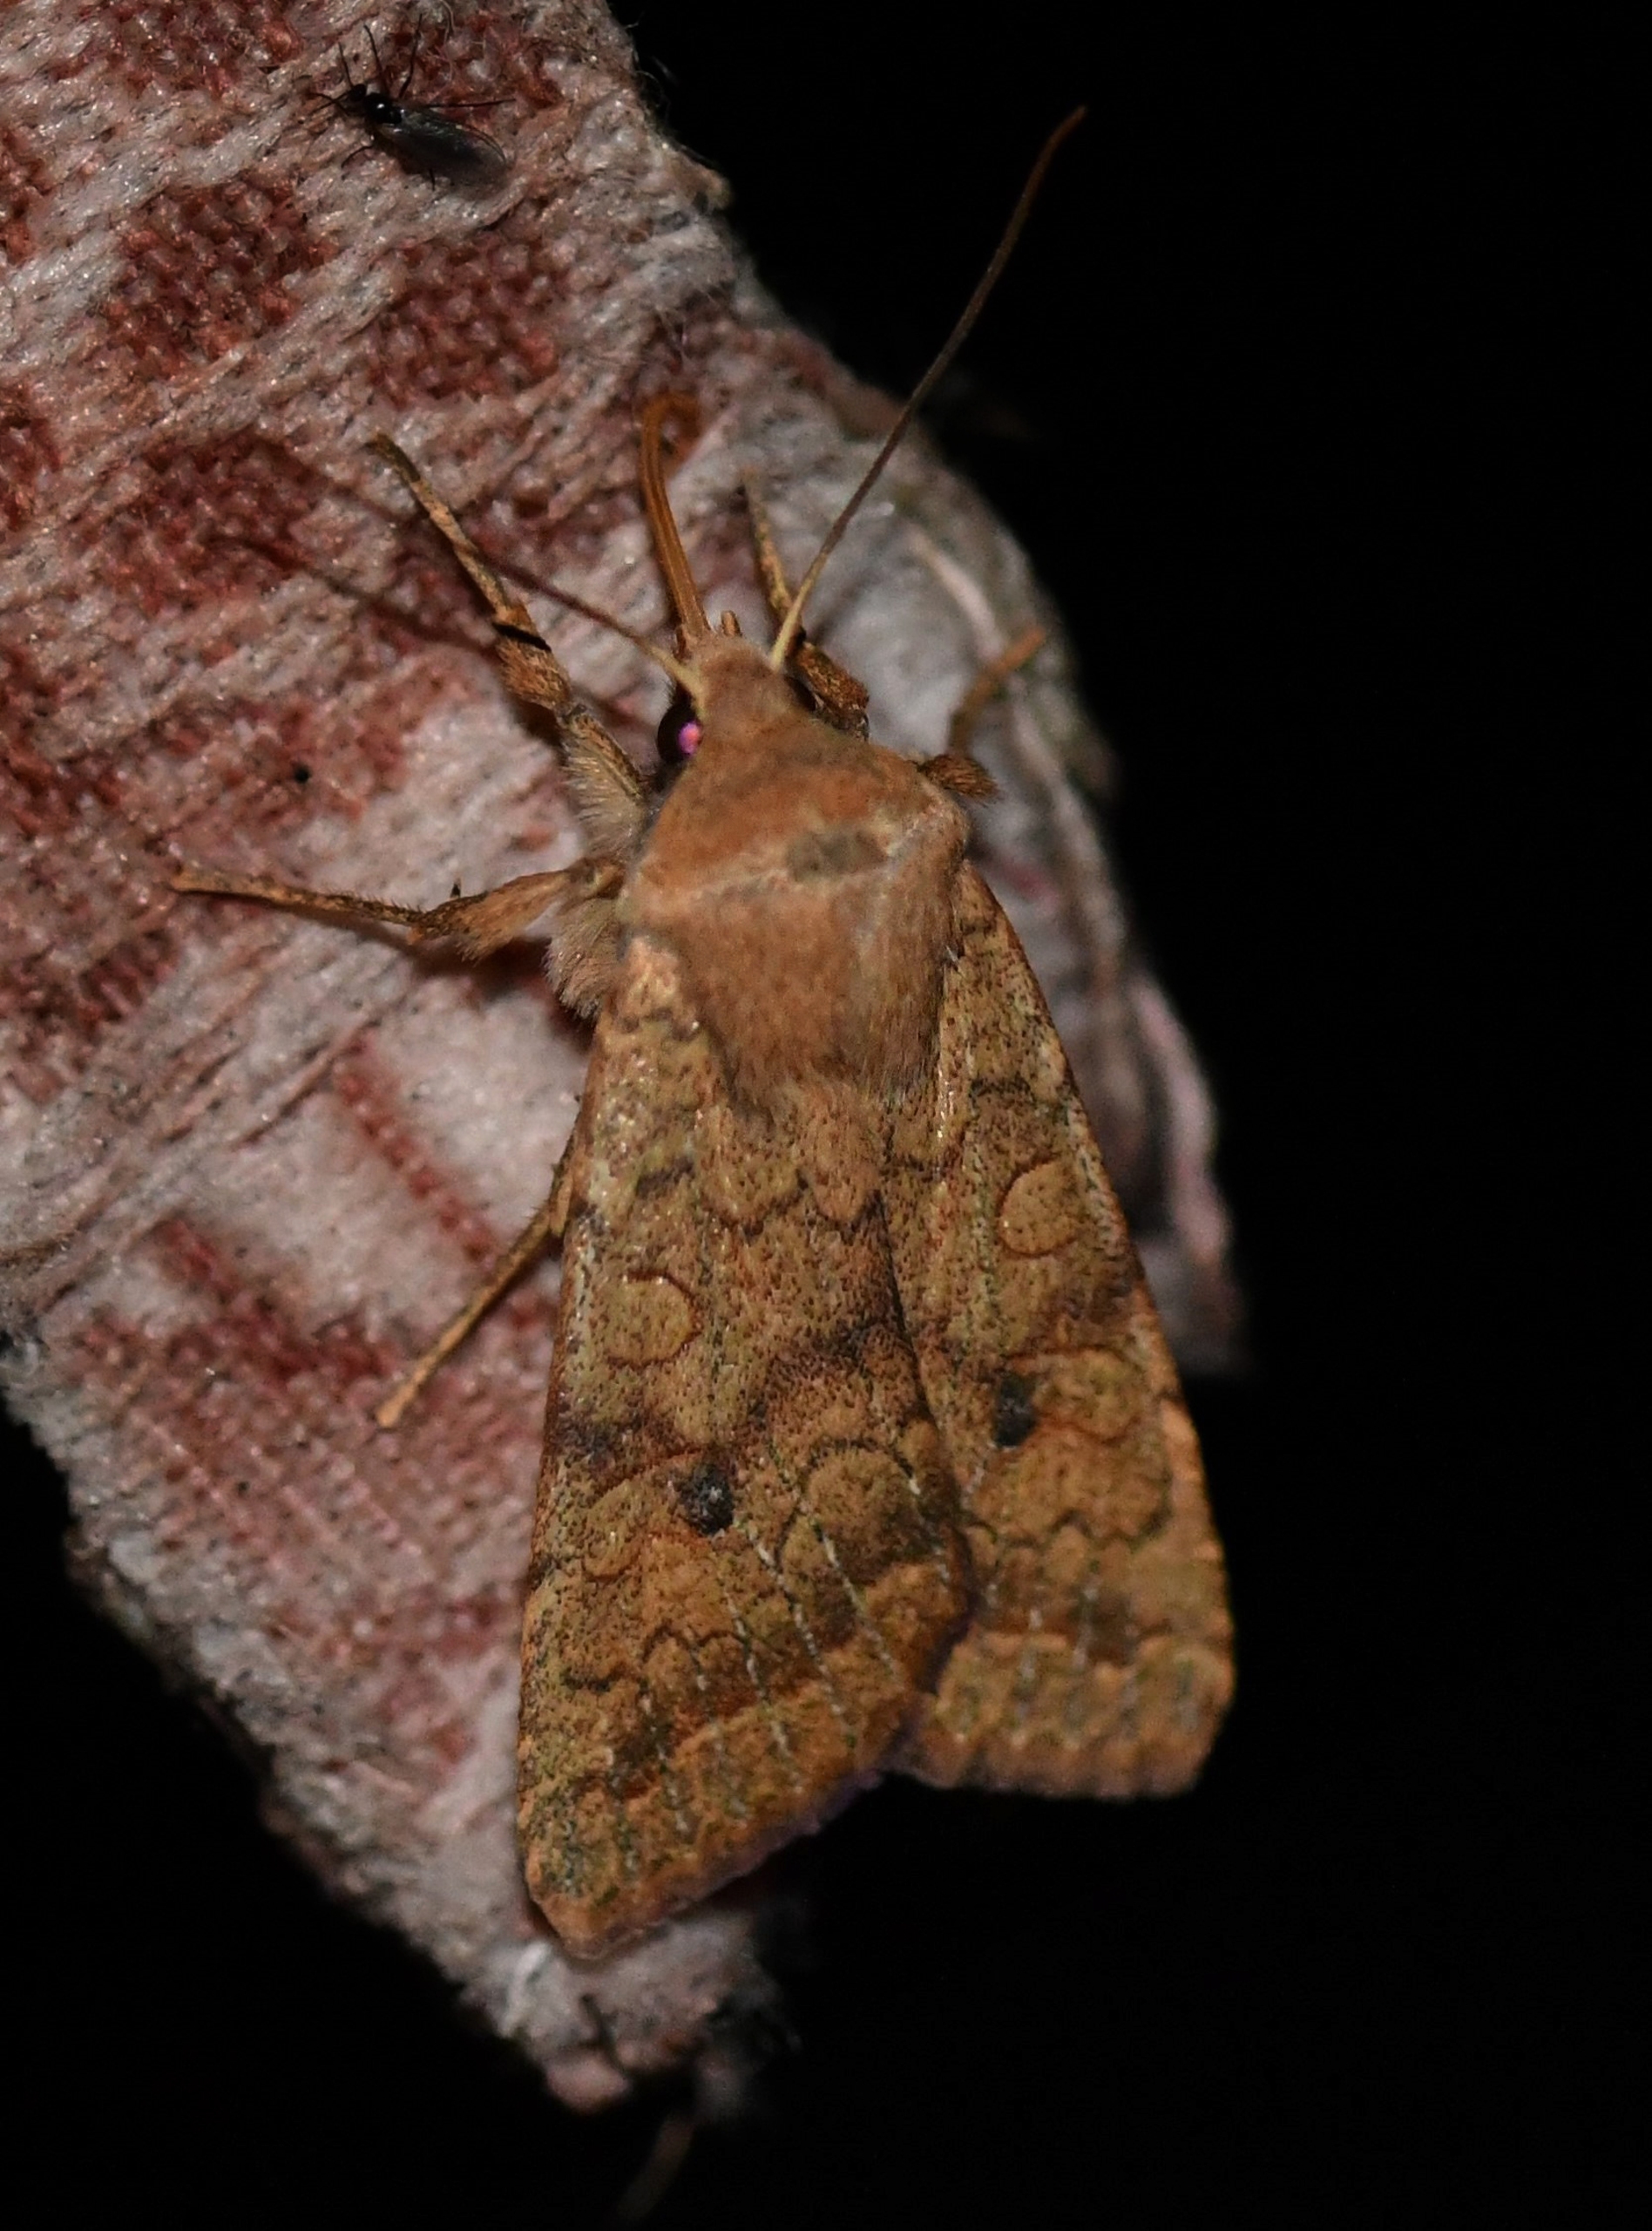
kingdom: Animalia
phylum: Arthropoda
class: Insecta
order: Lepidoptera
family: Noctuidae
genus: Sunira
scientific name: Sunira circellaris
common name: Cirkel-jordfarveugle
